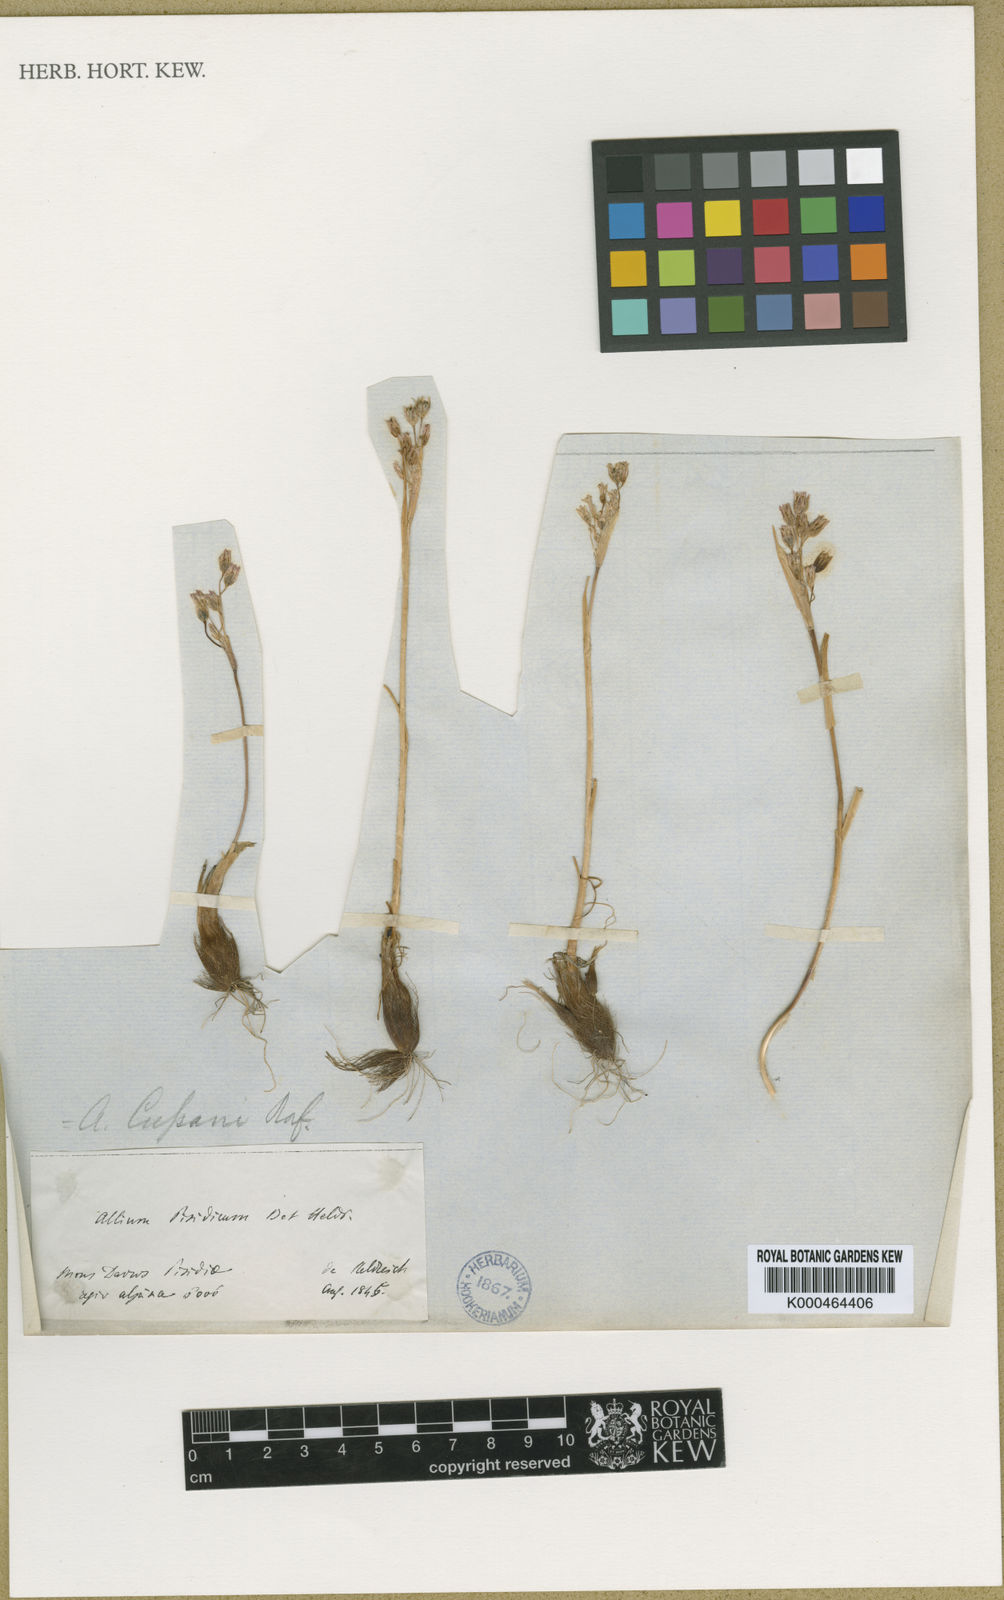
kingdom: Plantae
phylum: Tracheophyta
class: Liliopsida
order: Asparagales
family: Amaryllidaceae
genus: Allium
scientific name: Allium cupani
